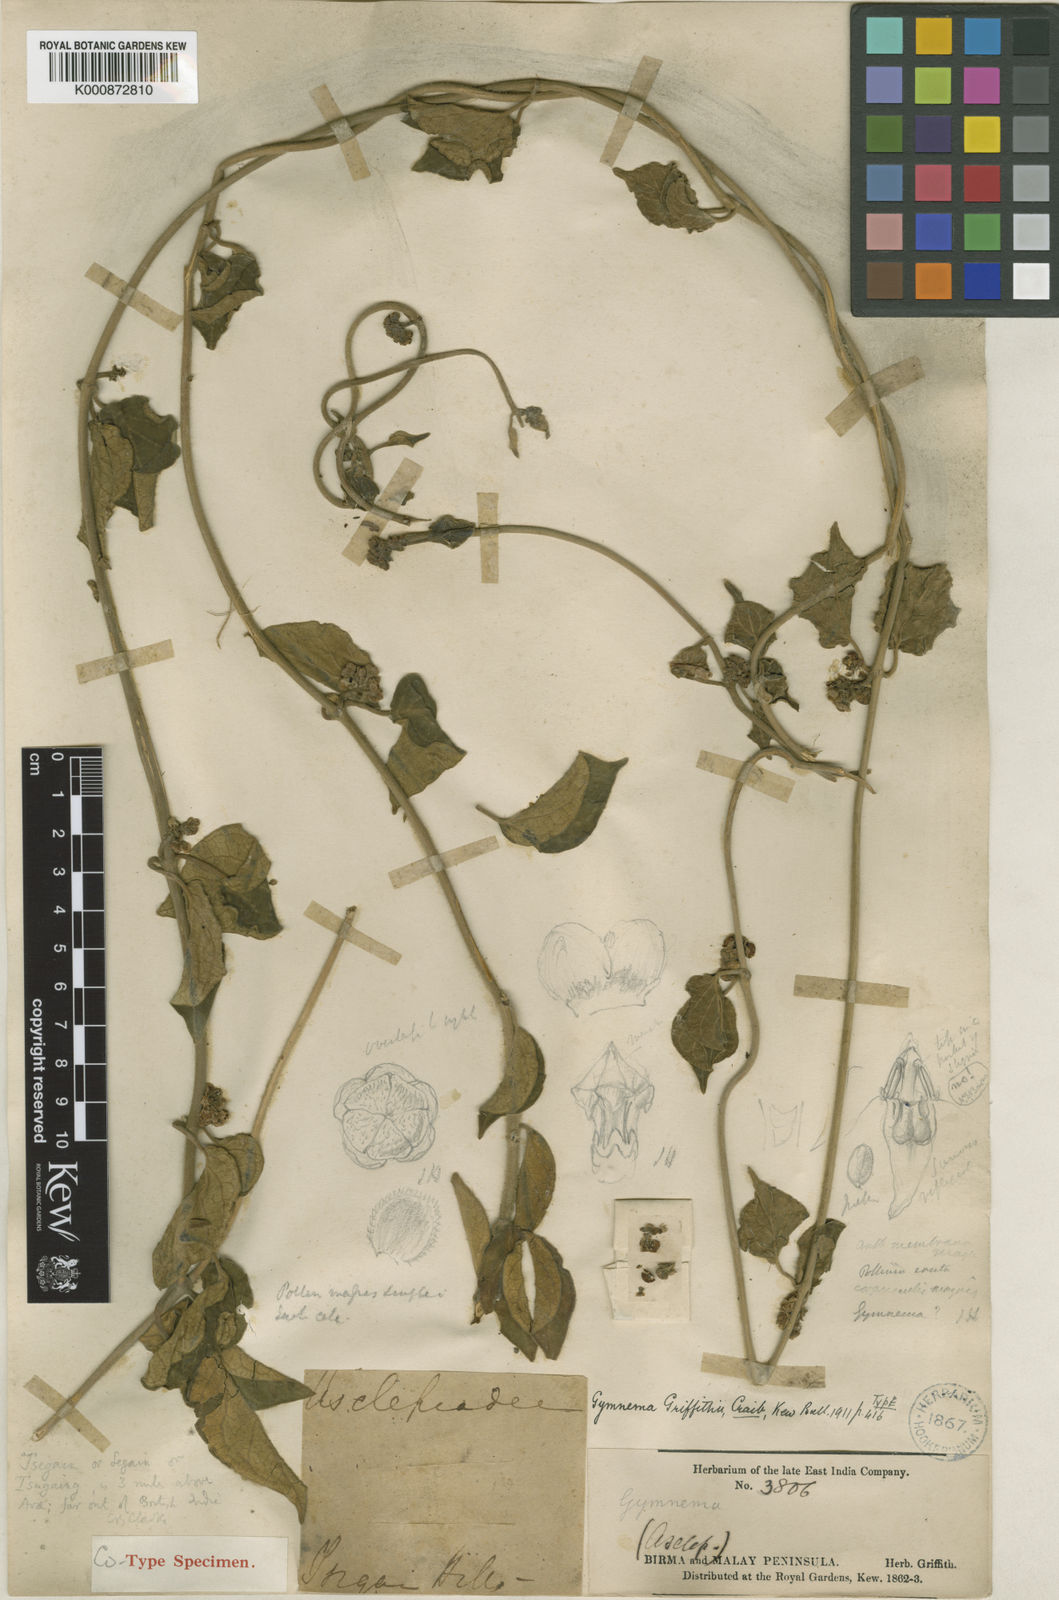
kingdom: Plantae
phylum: Tracheophyta
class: Magnoliopsida
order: Gentianales
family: Apocynaceae
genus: Gymnema
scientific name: Gymnema griffithii
